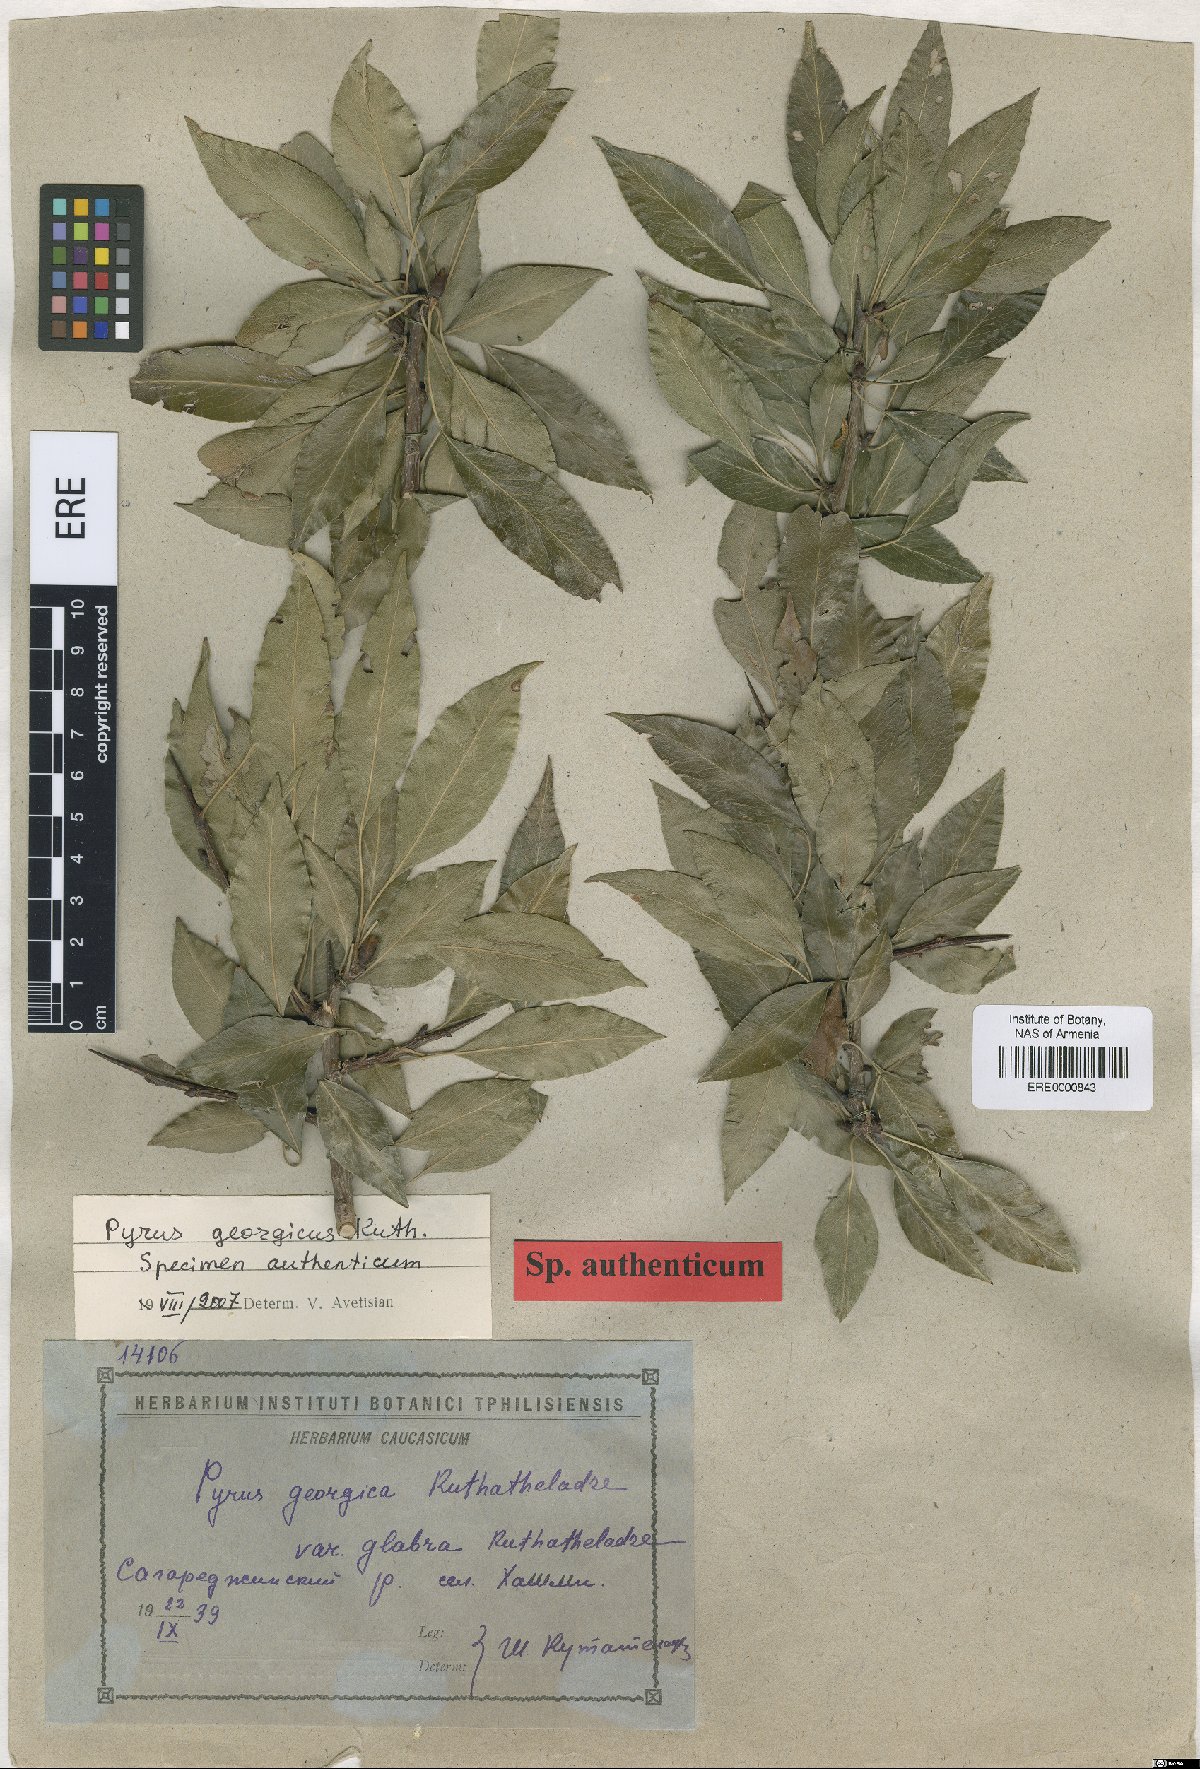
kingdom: Plantae
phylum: Tracheophyta
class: Magnoliopsida
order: Rosales
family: Rosaceae
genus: Pyrus
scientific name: Pyrus georgica
